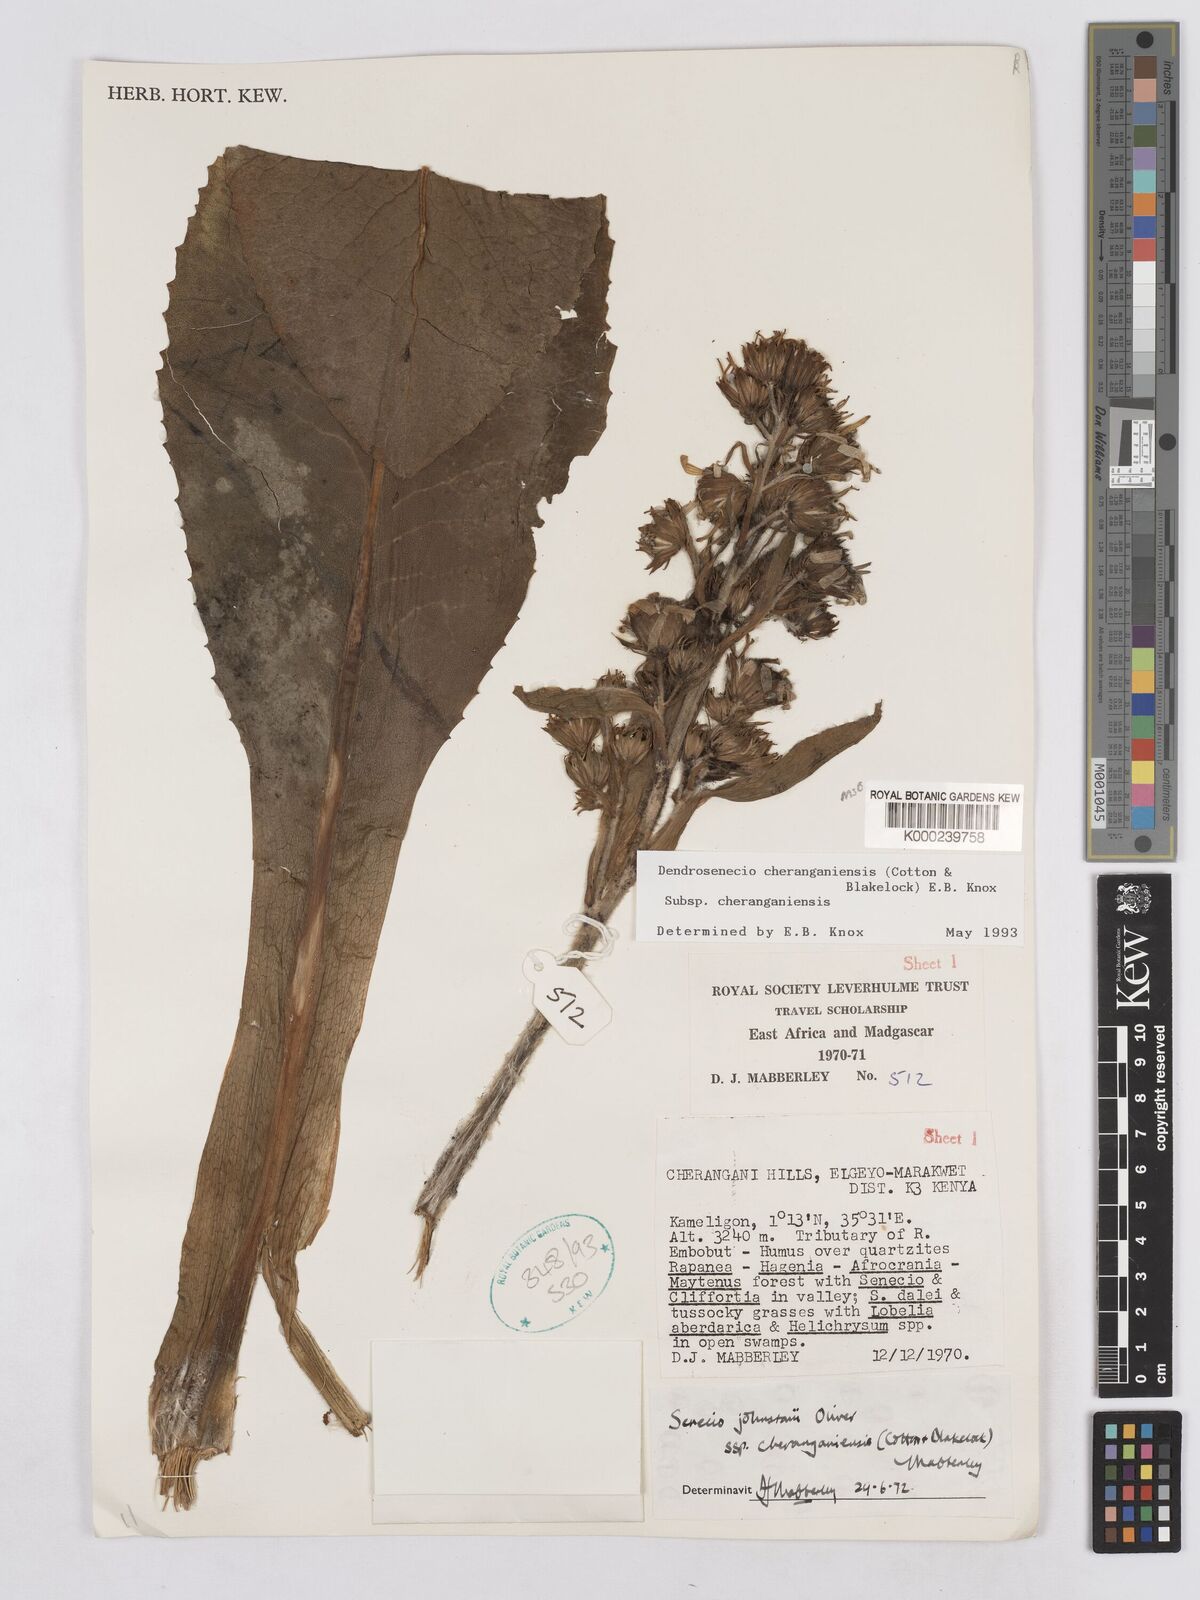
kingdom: Plantae
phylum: Tracheophyta
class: Magnoliopsida
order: Asterales
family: Asteraceae
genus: Dendrosenecio
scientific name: Dendrosenecio cheranganiensis
